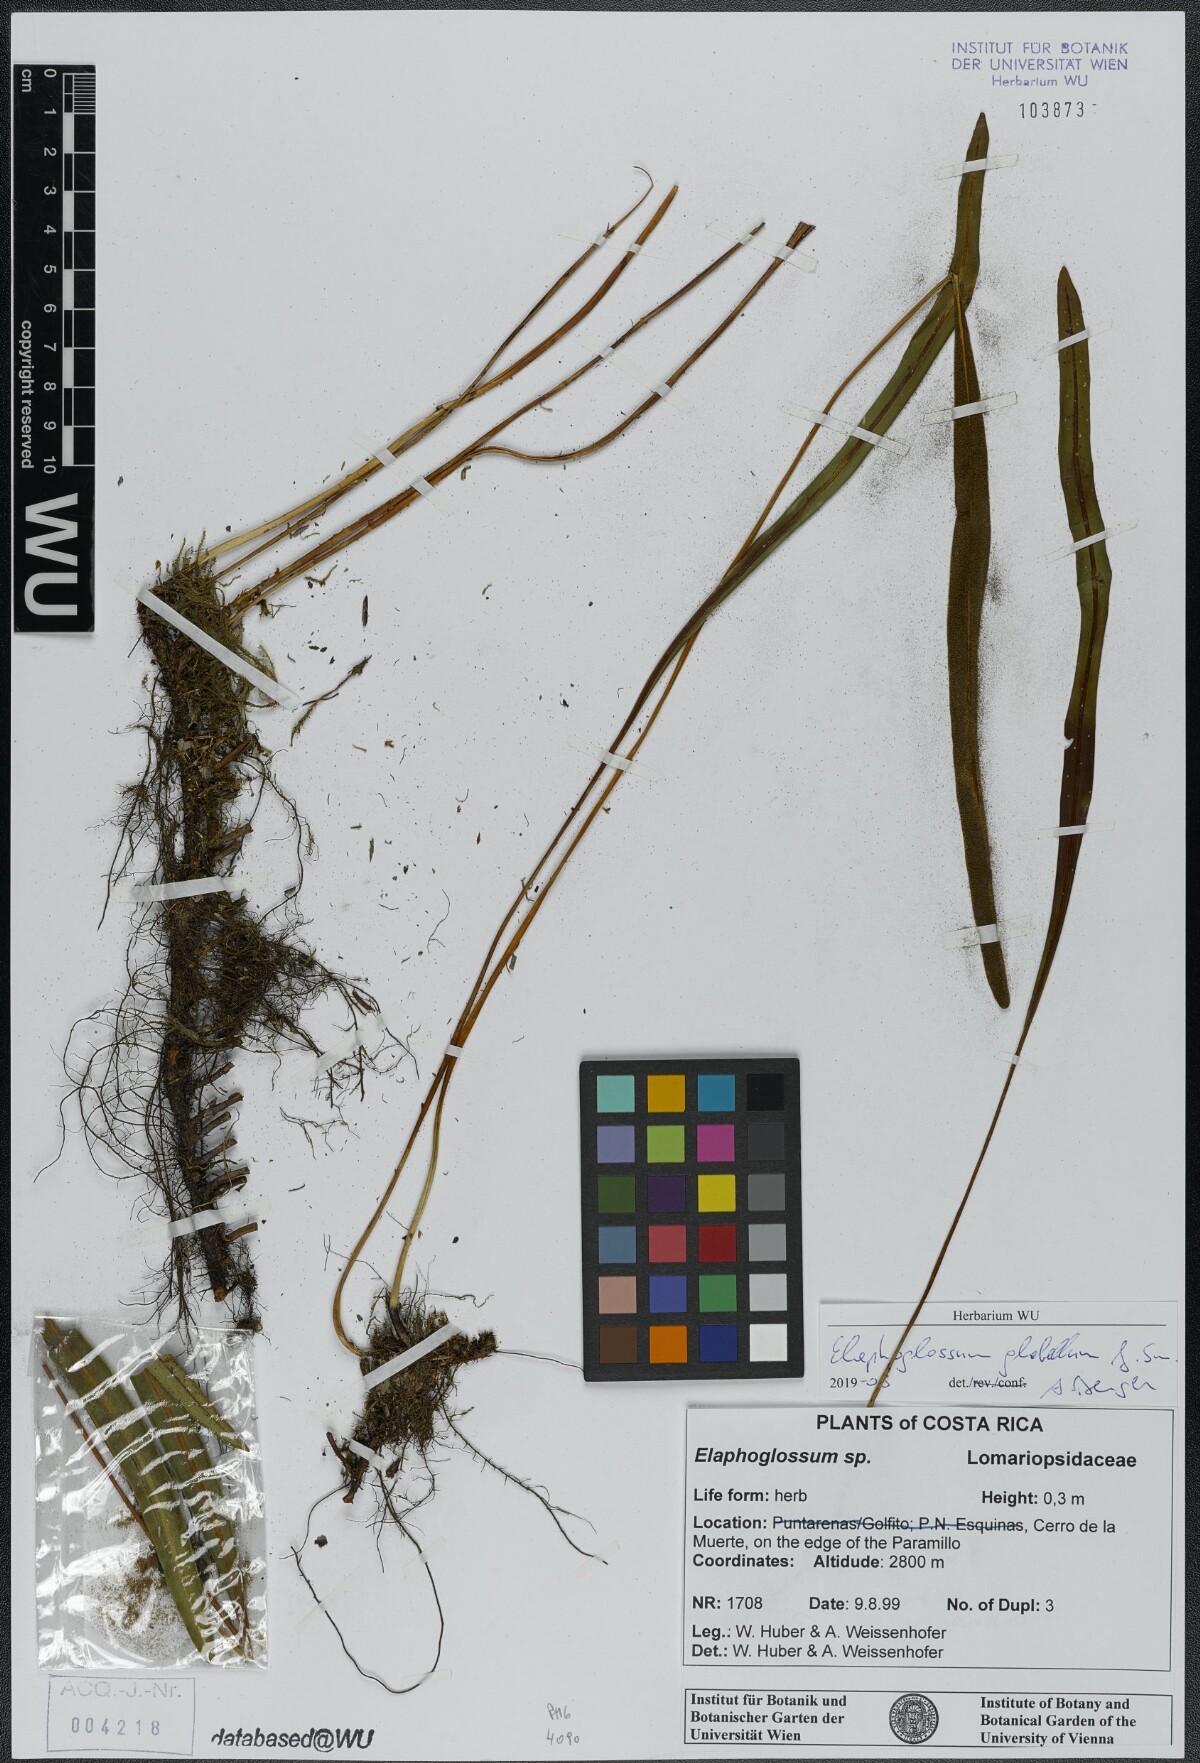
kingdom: Plantae
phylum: Tracheophyta
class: Polypodiopsida
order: Polypodiales
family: Dryopteridaceae
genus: Elaphoglossum
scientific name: Elaphoglossum glabellum
